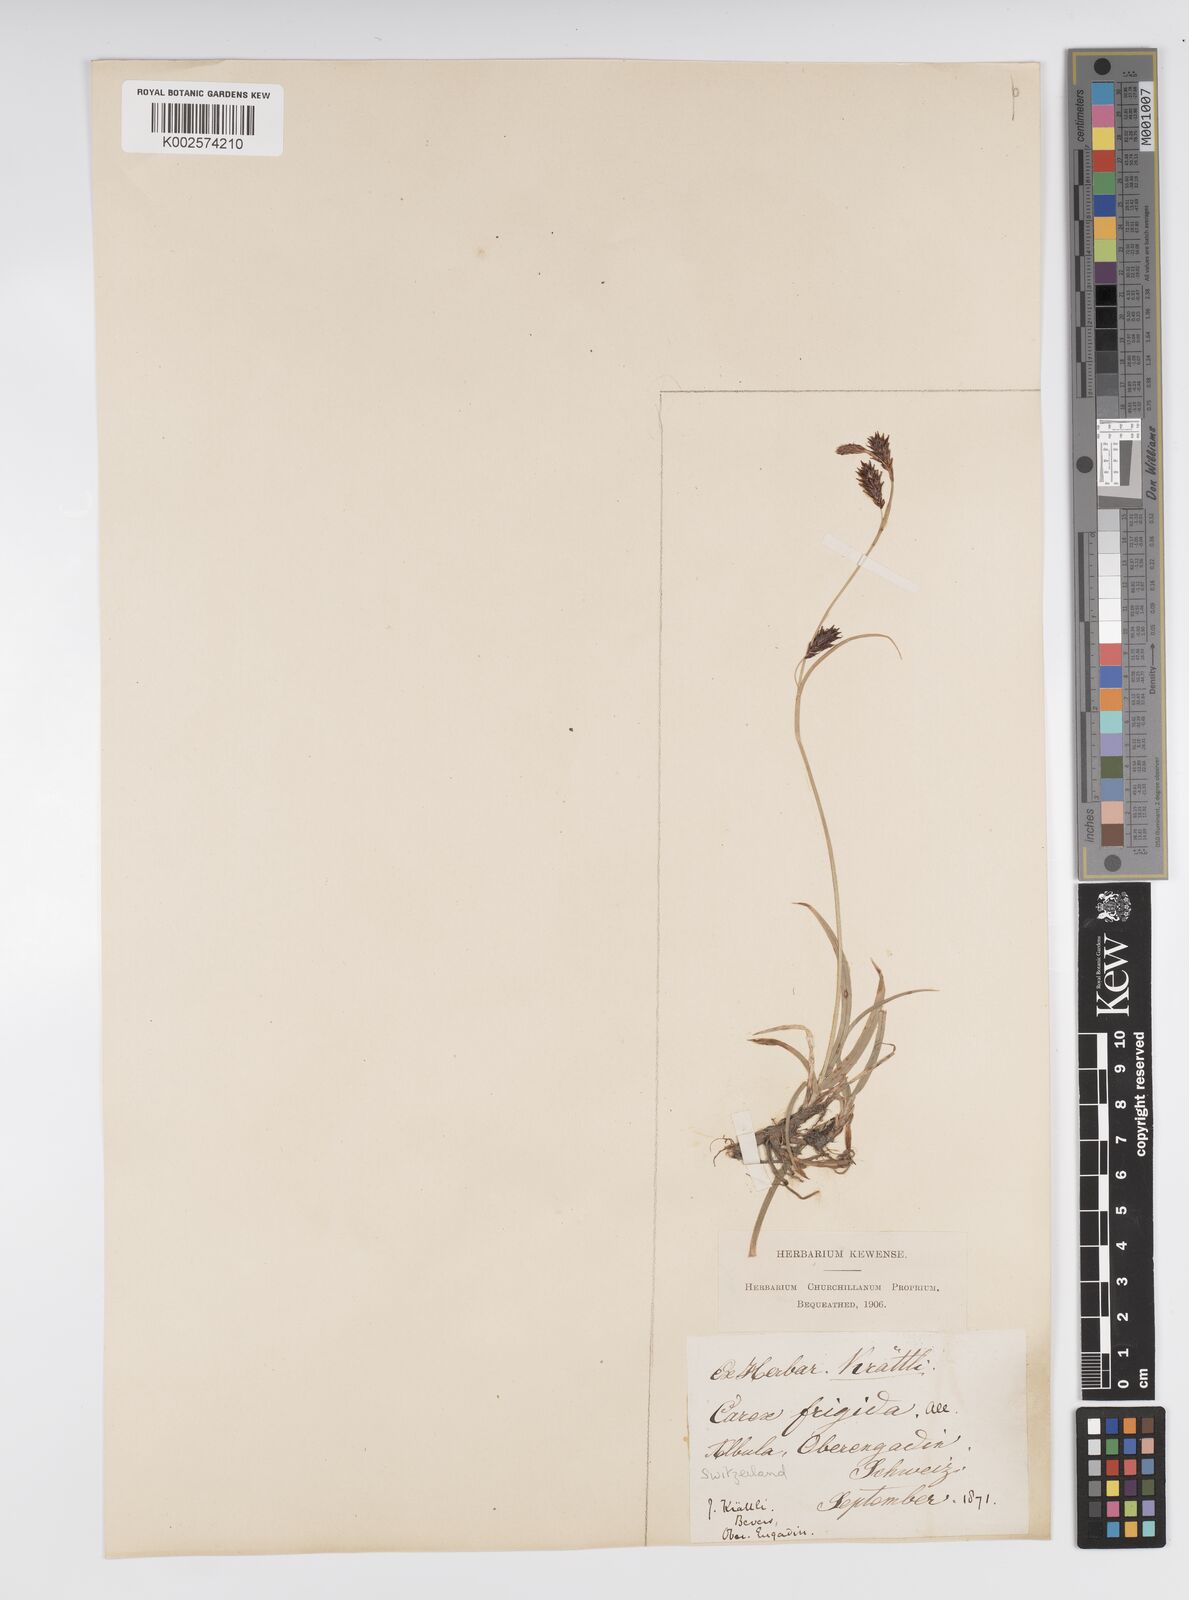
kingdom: Plantae
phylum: Tracheophyta
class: Liliopsida
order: Poales
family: Cyperaceae
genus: Carex
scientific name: Carex frigida
